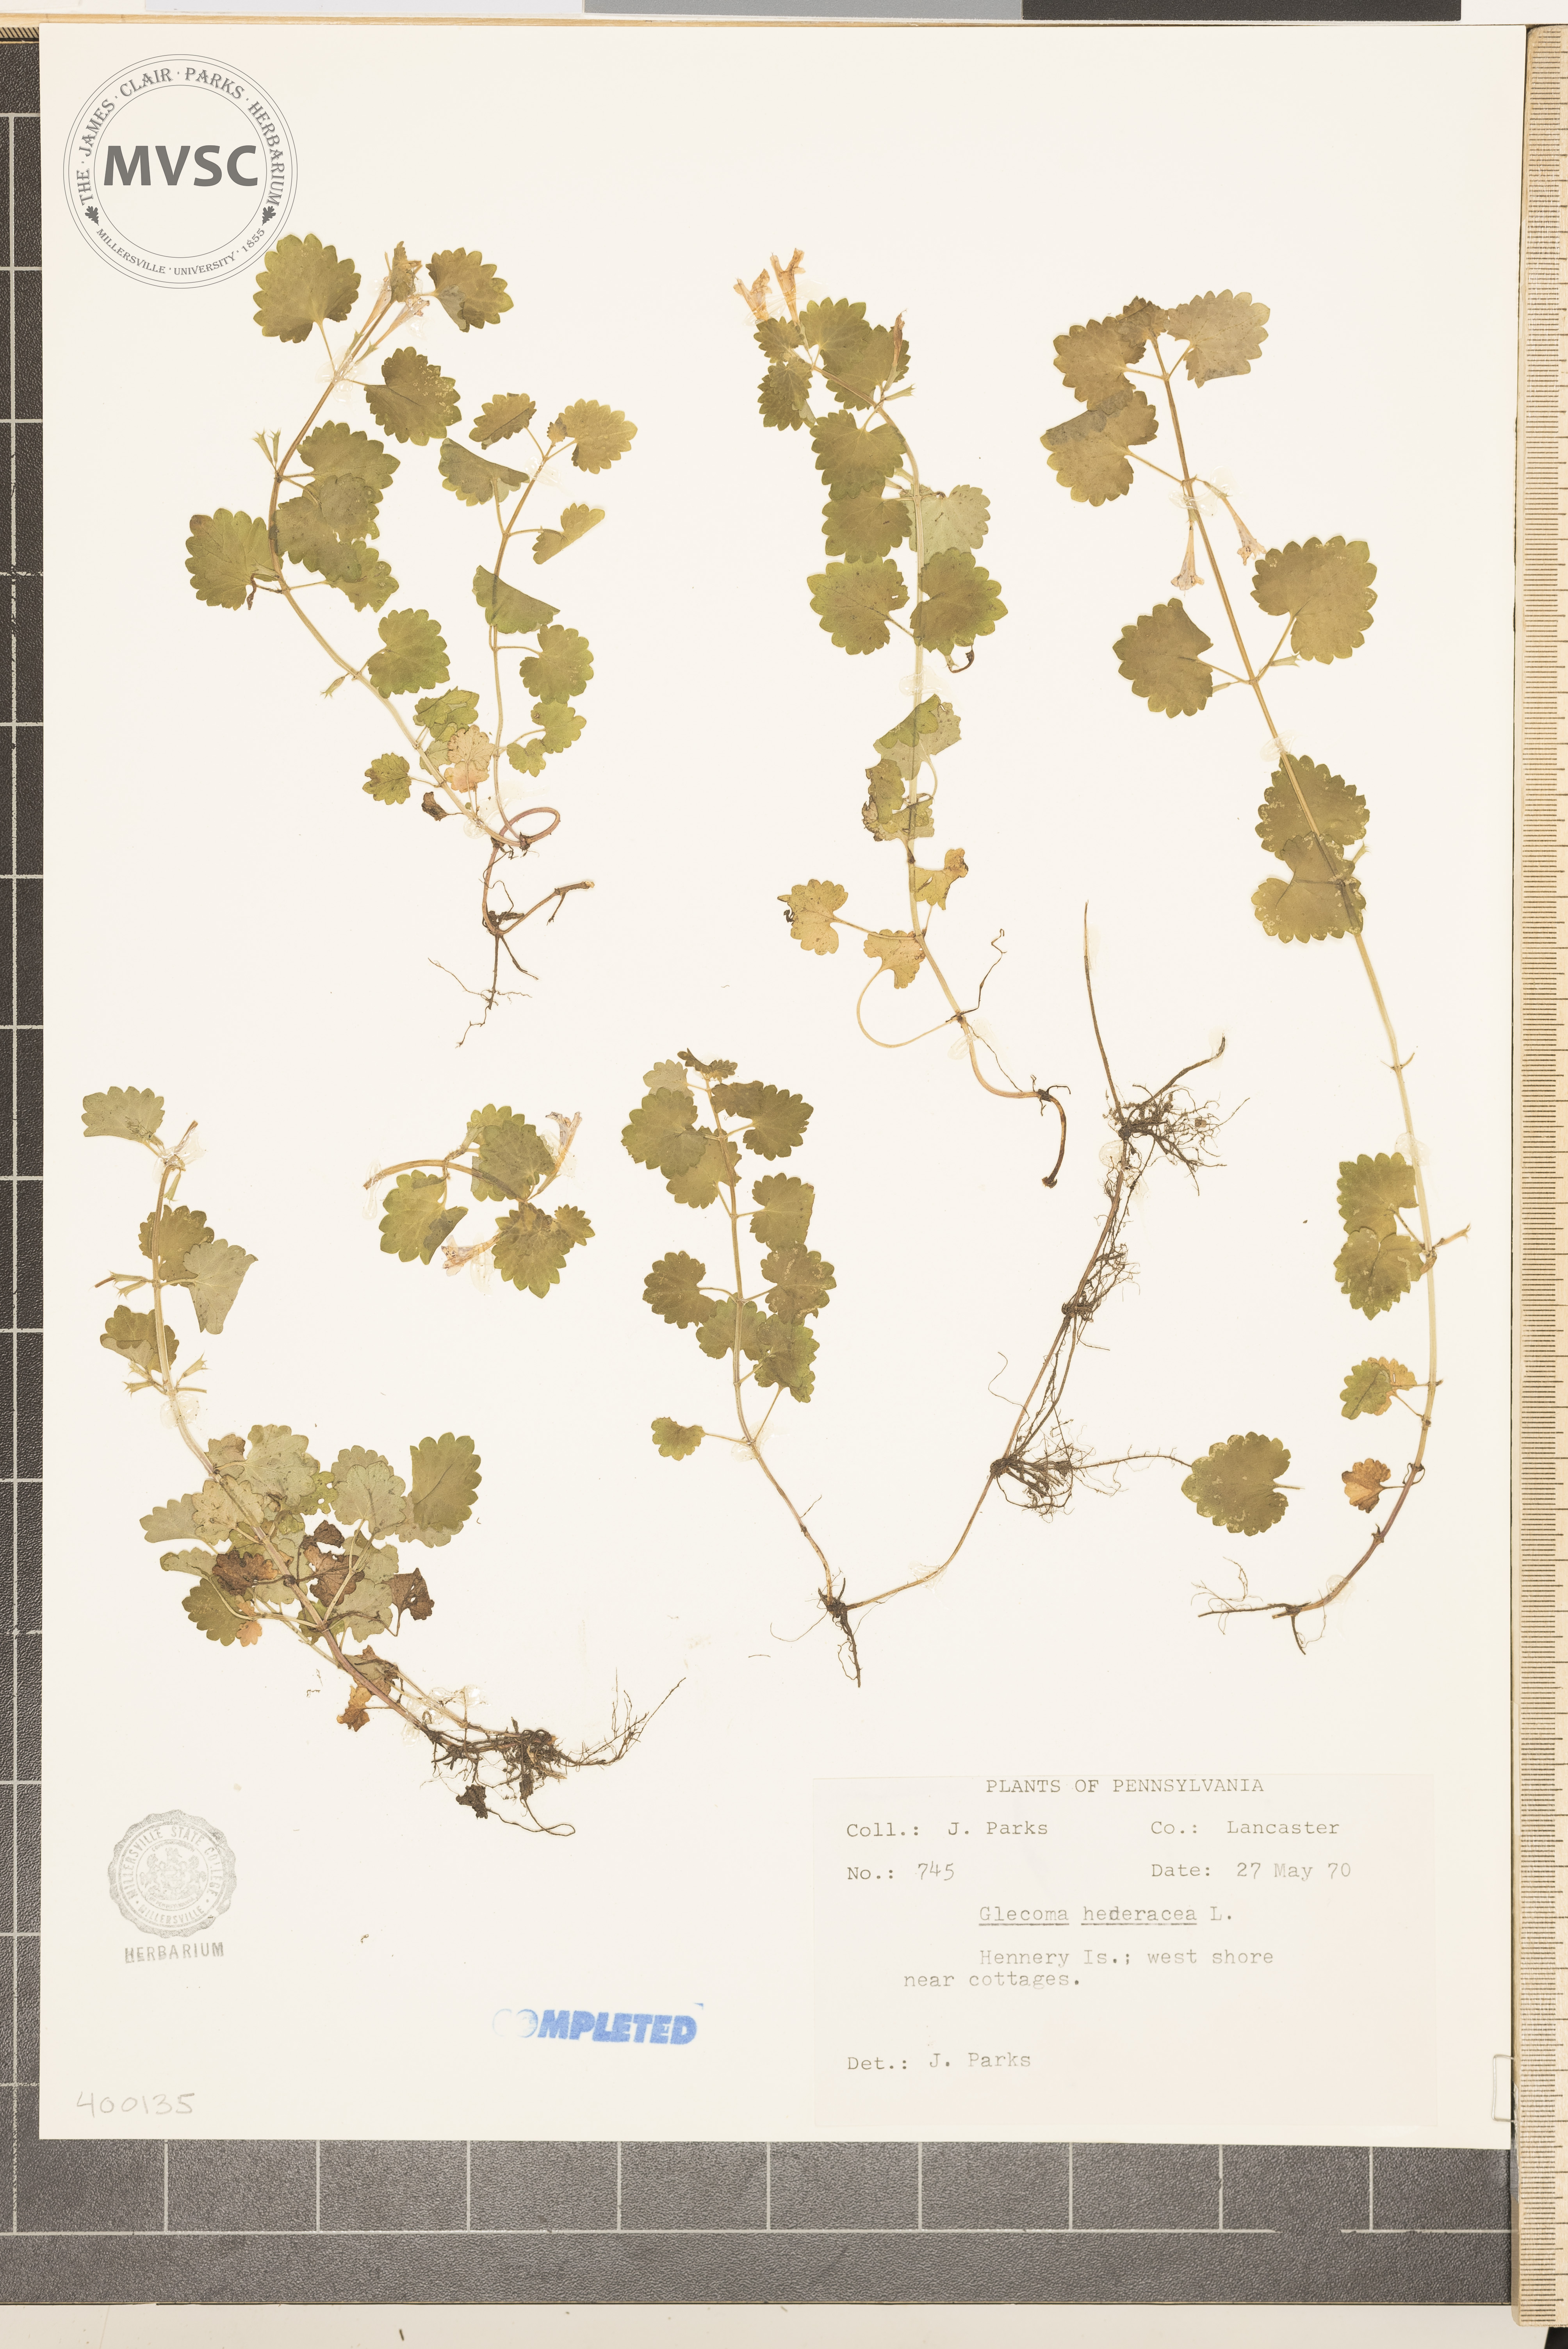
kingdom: Plantae
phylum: Tracheophyta
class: Magnoliopsida
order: Lamiales
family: Lamiaceae
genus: Glechoma
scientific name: Glechoma hederacea
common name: ground-ivy
